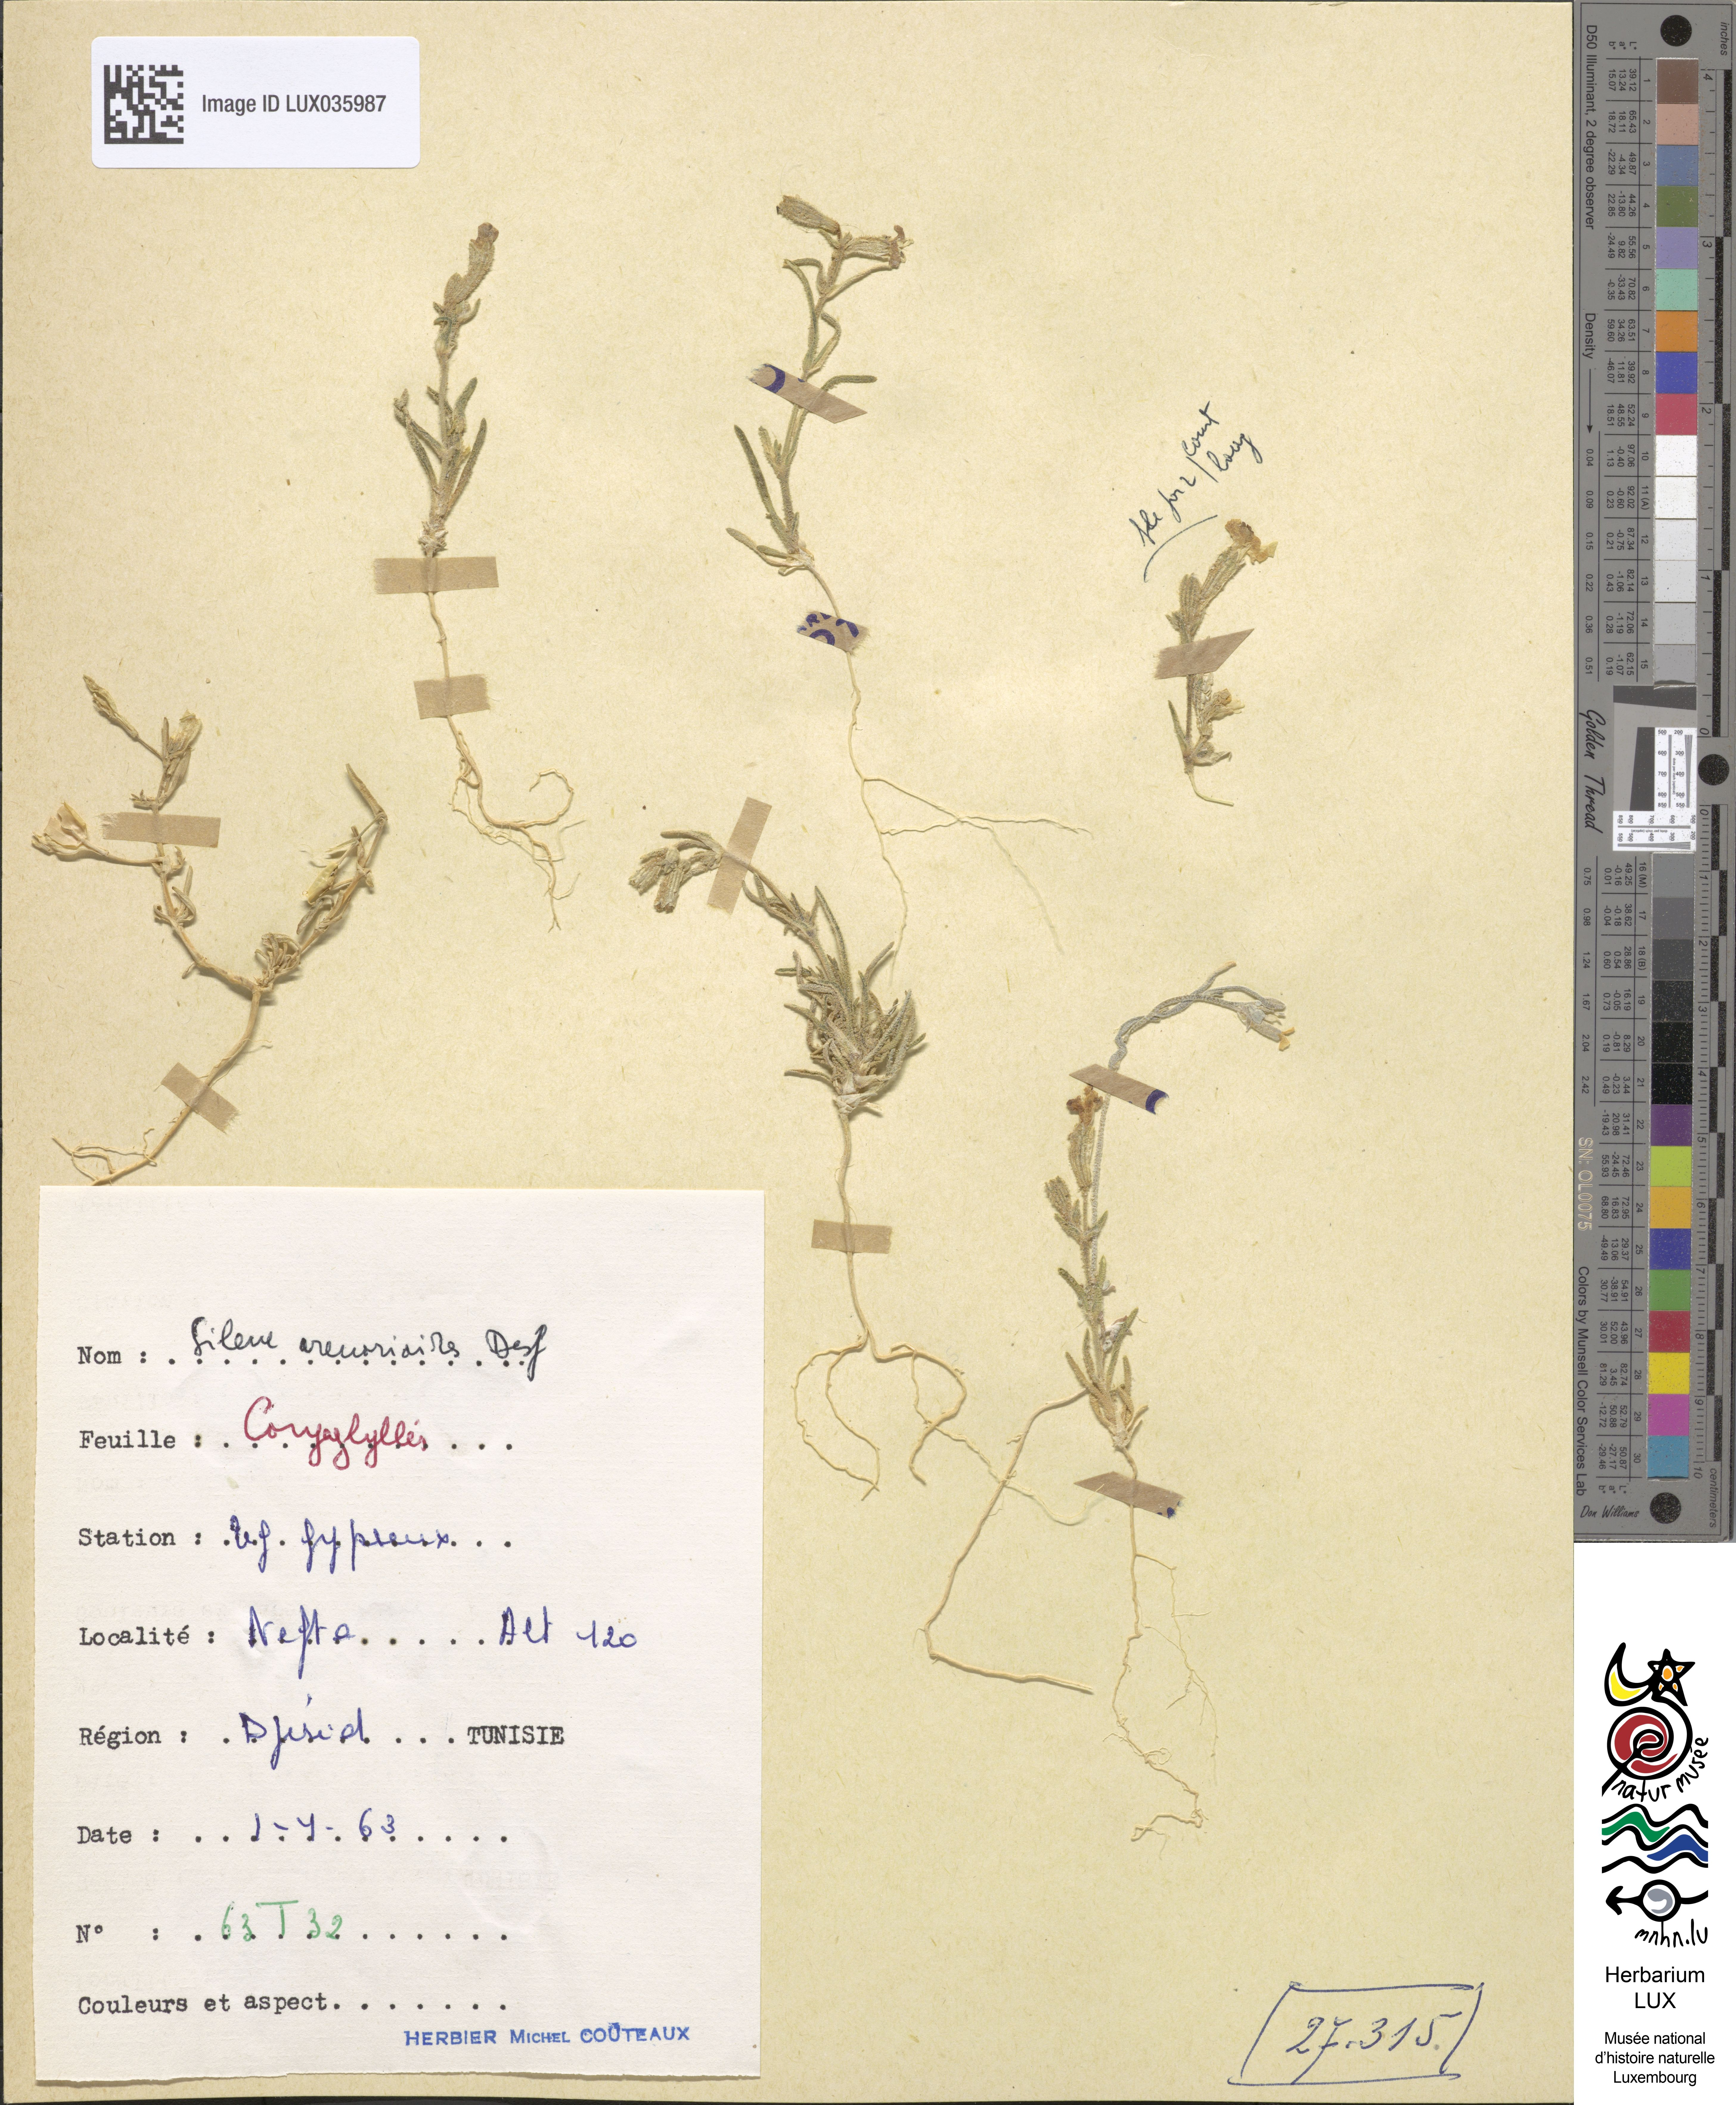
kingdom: Plantae
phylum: Tracheophyta
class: Magnoliopsida
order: Caryophyllales
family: Caryophyllaceae
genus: Silene
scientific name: Silene arenarioides
